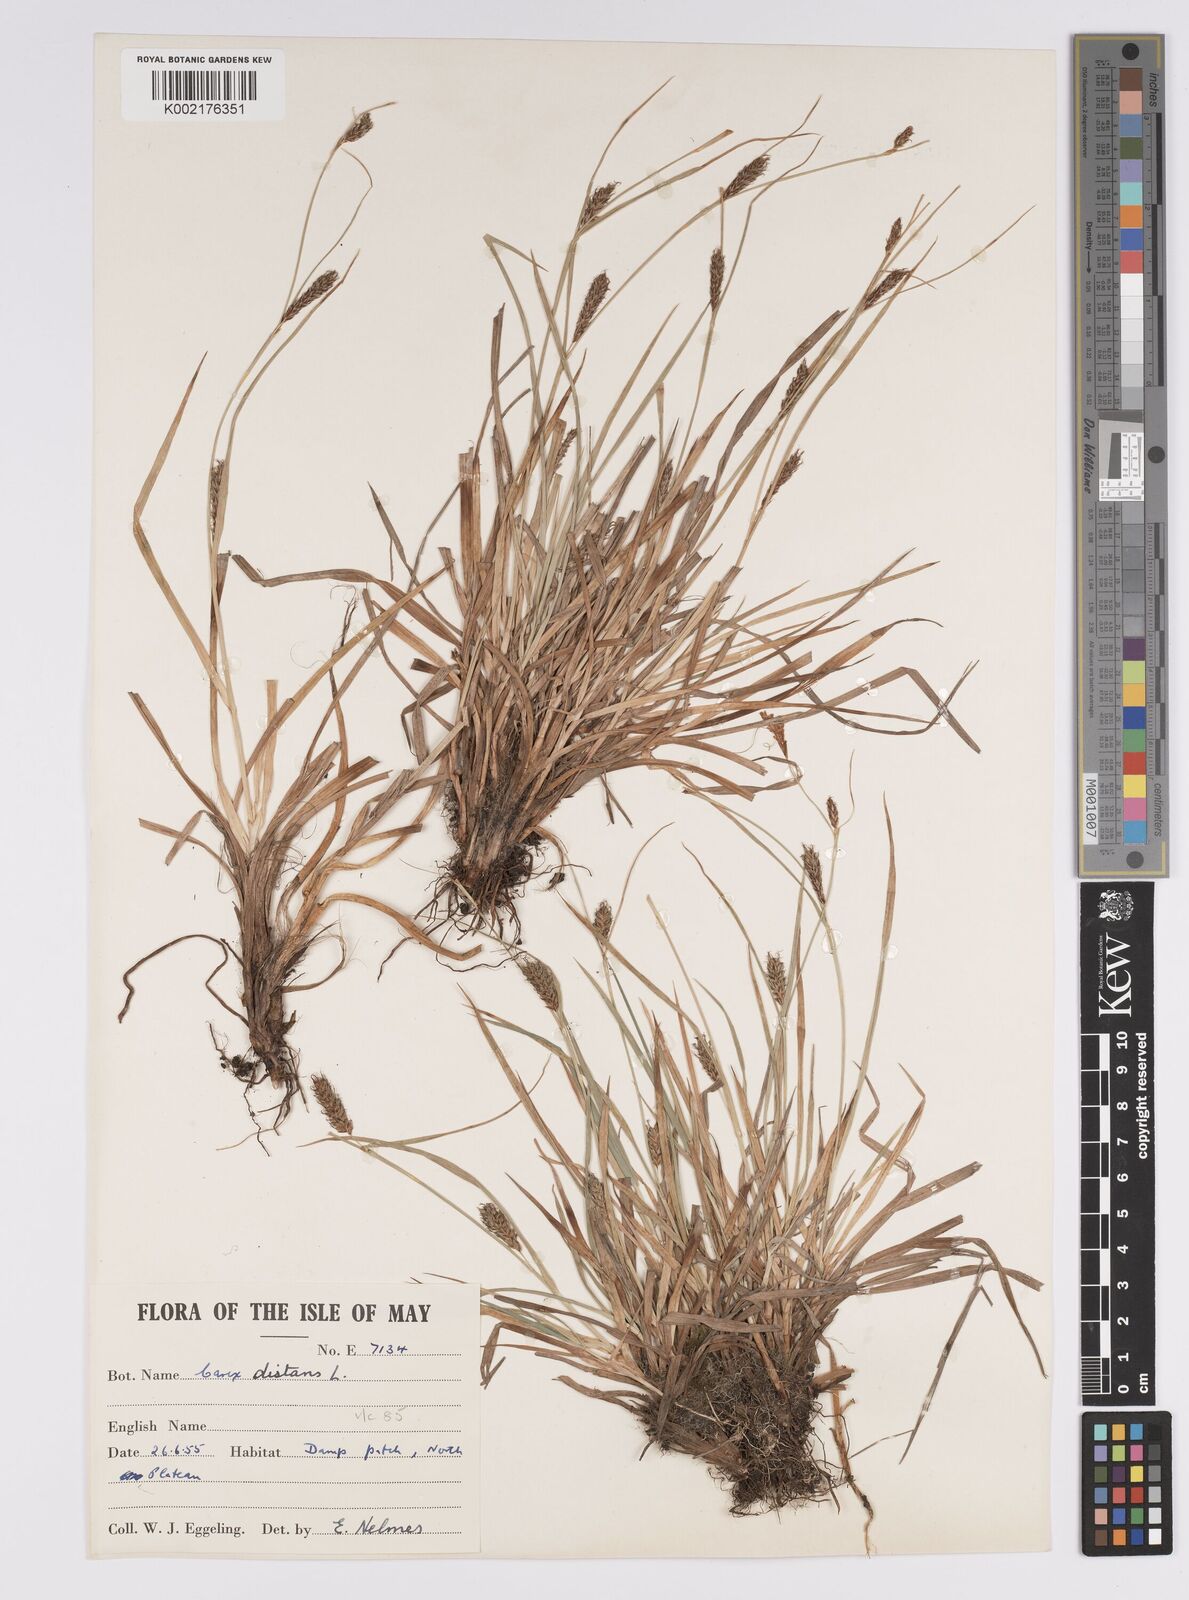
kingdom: Plantae
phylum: Tracheophyta
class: Liliopsida
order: Poales
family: Cyperaceae
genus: Carex
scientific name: Carex distans
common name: Distant sedge
